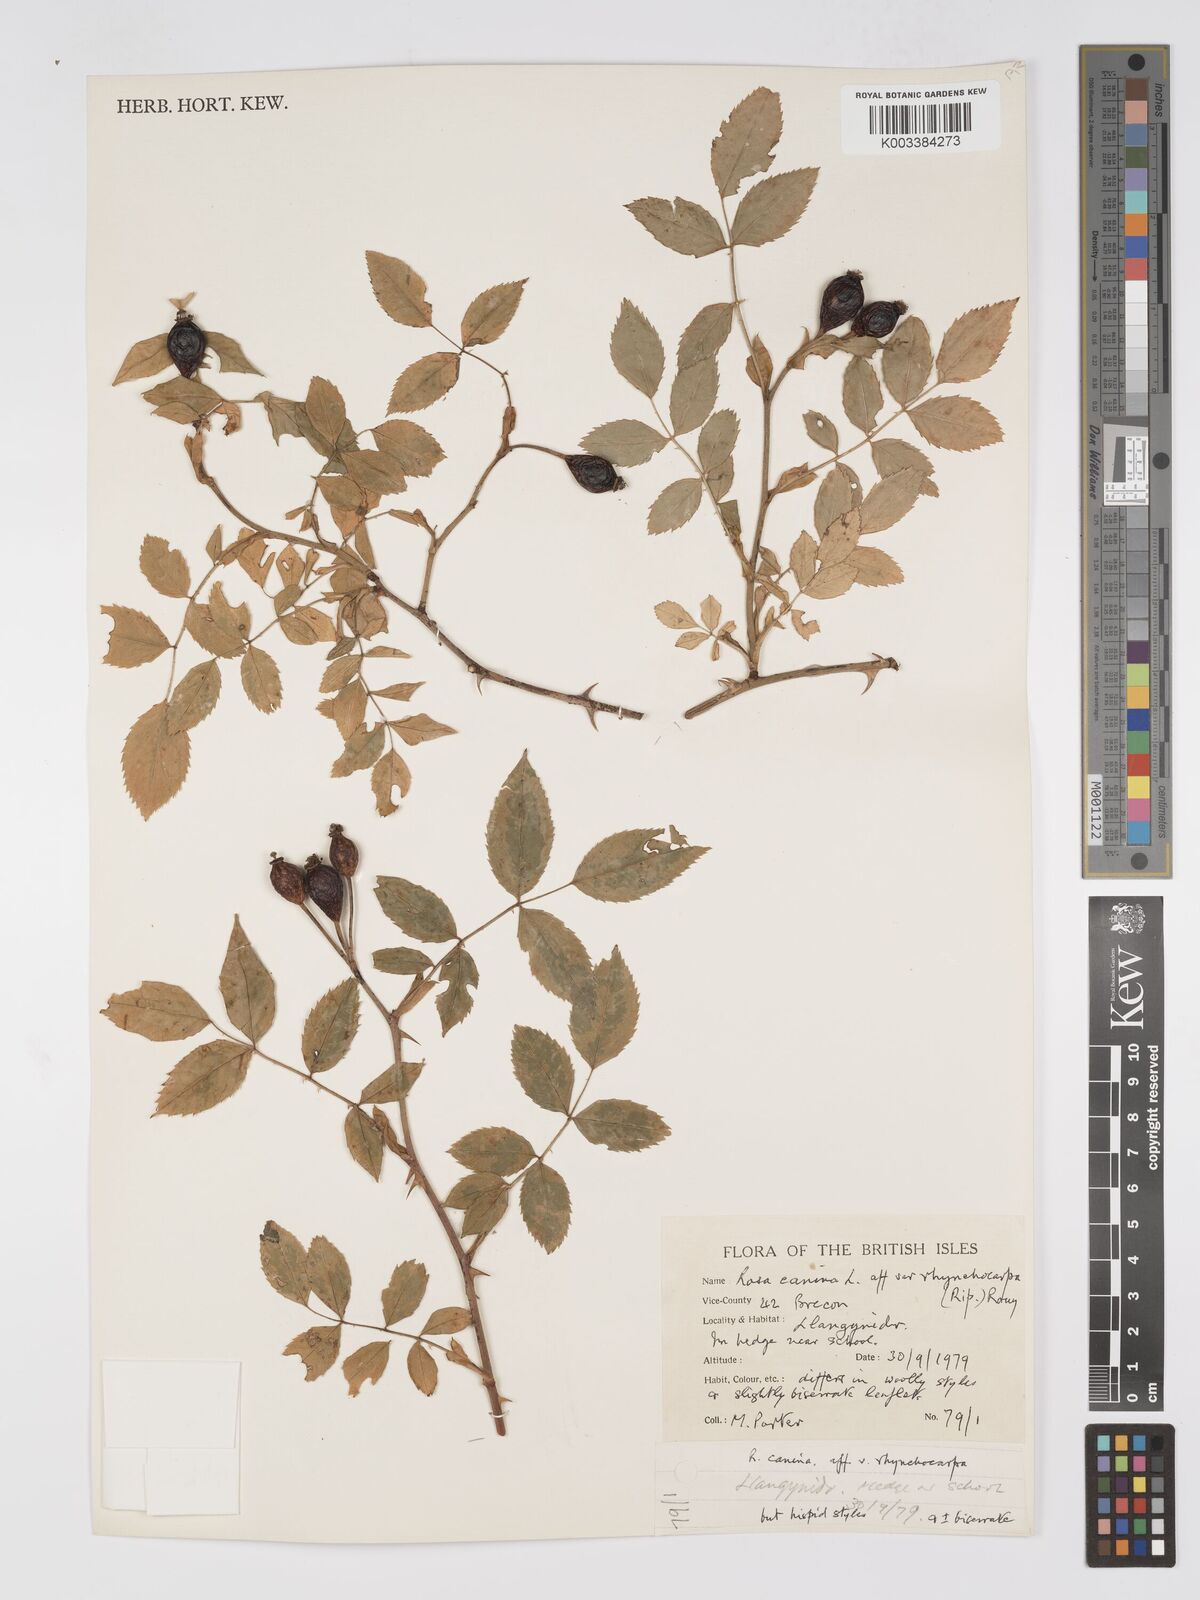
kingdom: Plantae
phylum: Tracheophyta
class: Magnoliopsida
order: Rosales
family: Rosaceae
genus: Rosa
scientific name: Rosa canina
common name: Dog rose
